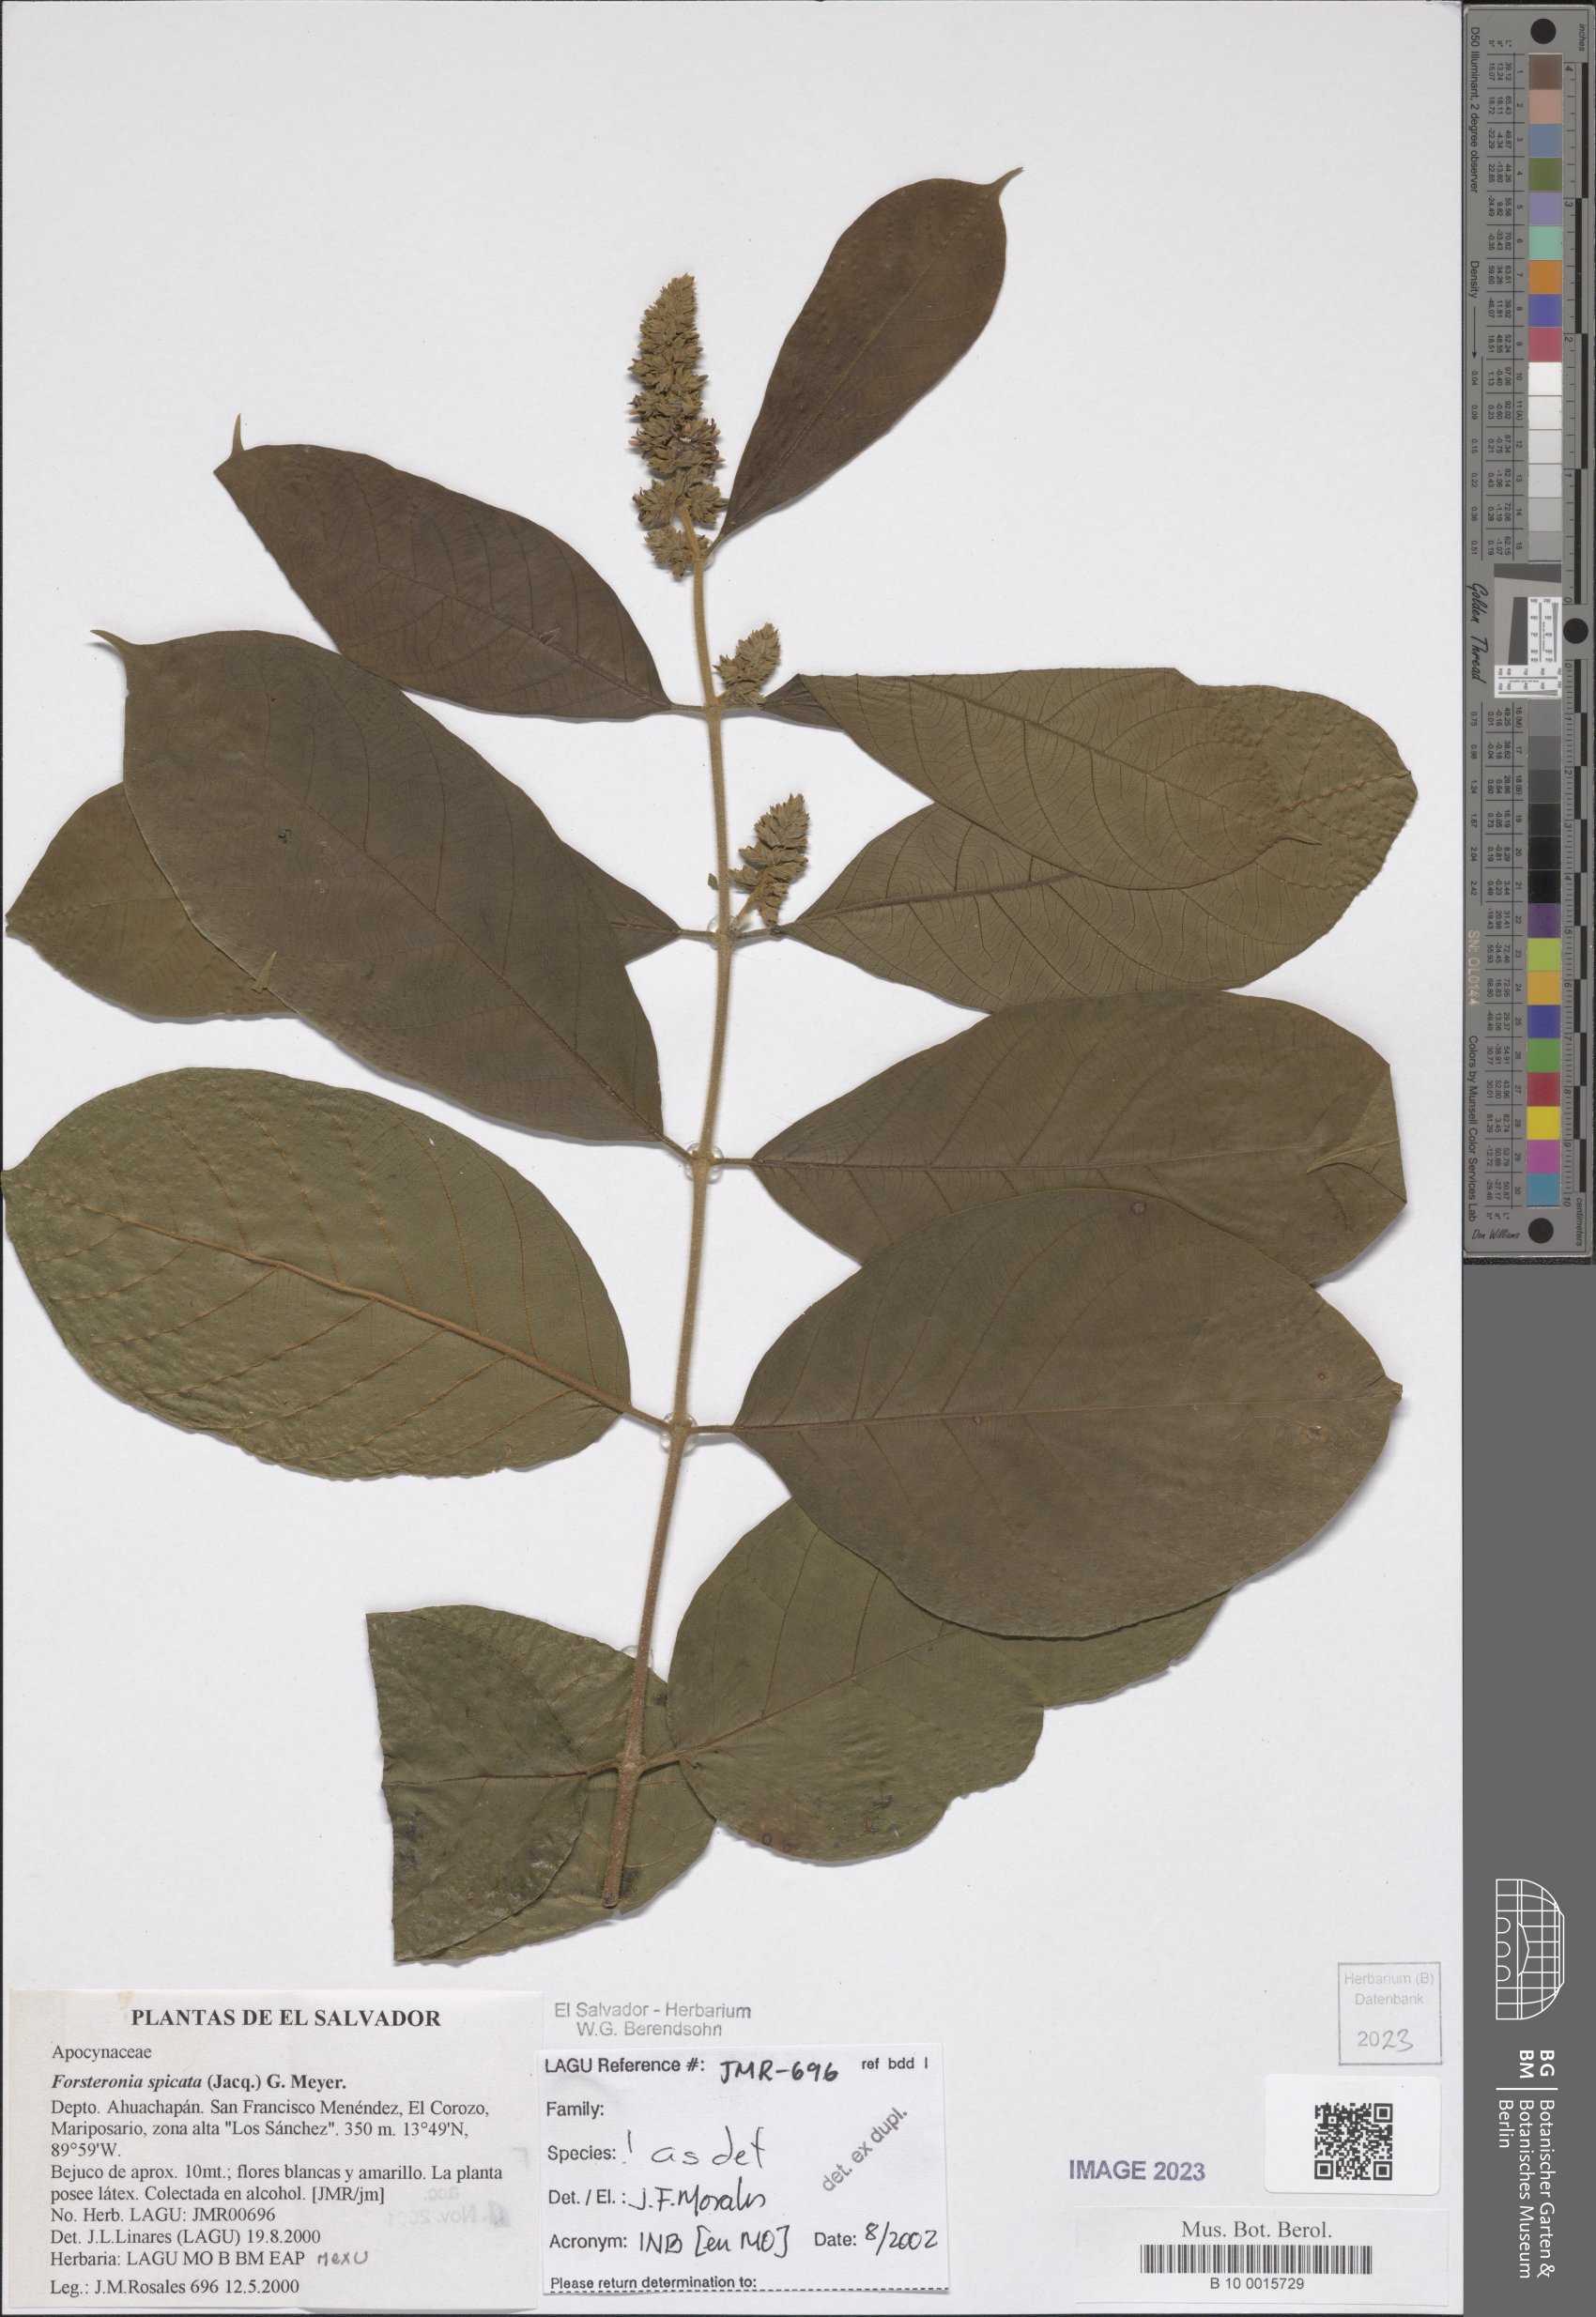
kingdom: Plantae
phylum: Tracheophyta
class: Magnoliopsida
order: Gentianales
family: Apocynaceae
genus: Forsteronia
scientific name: Forsteronia spicata
